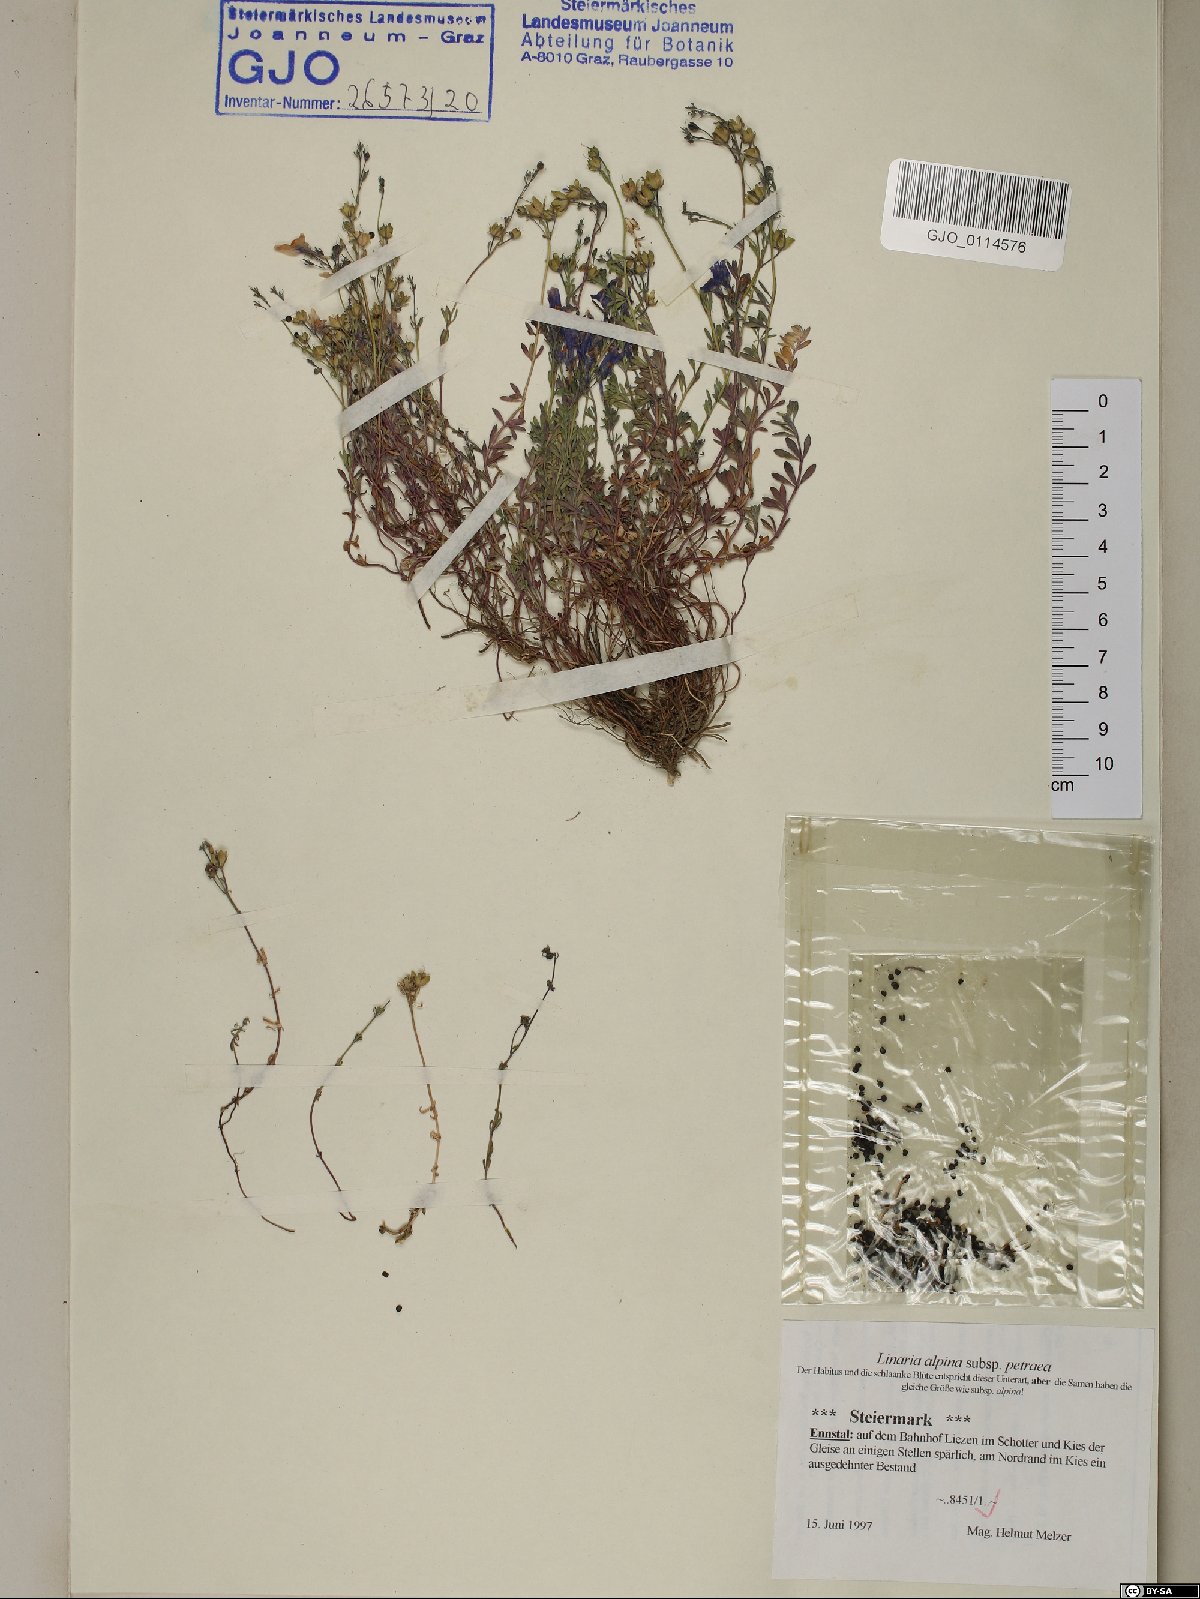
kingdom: Plantae
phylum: Tracheophyta
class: Magnoliopsida
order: Lamiales
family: Plantaginaceae
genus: Linaria
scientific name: Linaria alpina
